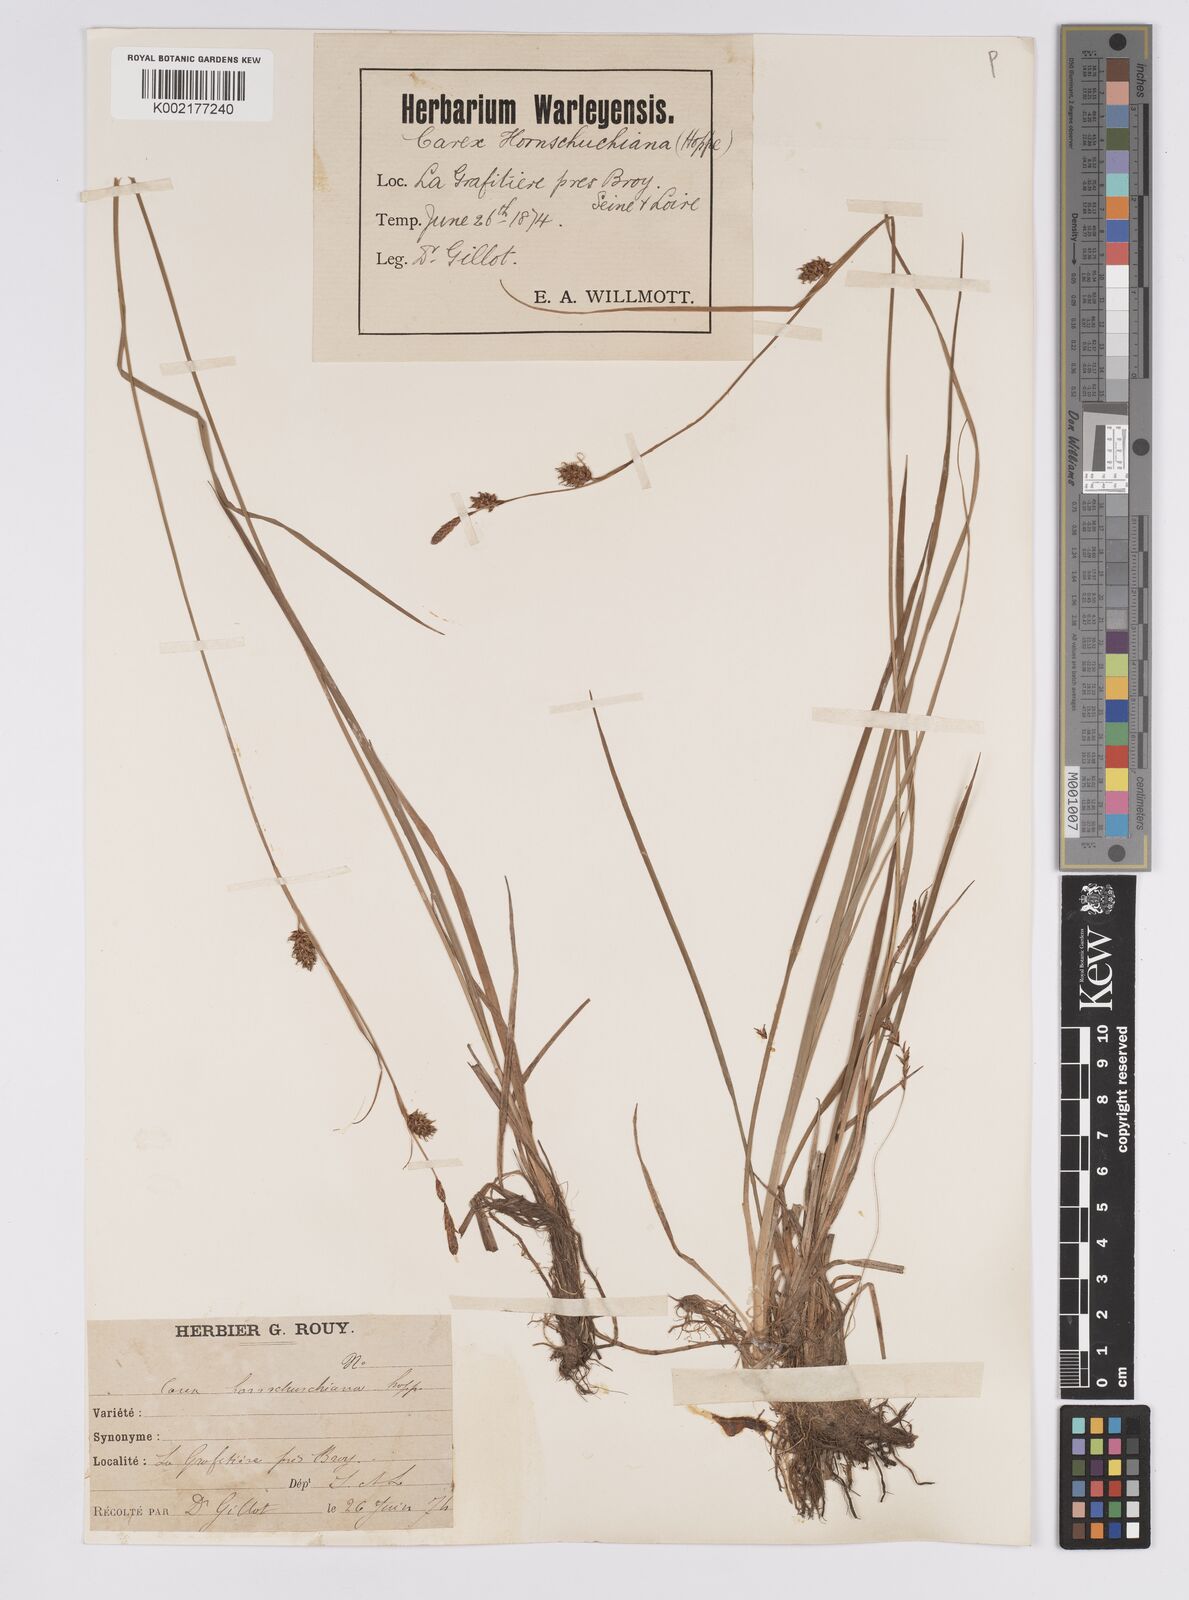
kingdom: Plantae
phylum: Tracheophyta
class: Liliopsida
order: Poales
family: Cyperaceae
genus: Carex
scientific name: Carex hostiana
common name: Tawny sedge
